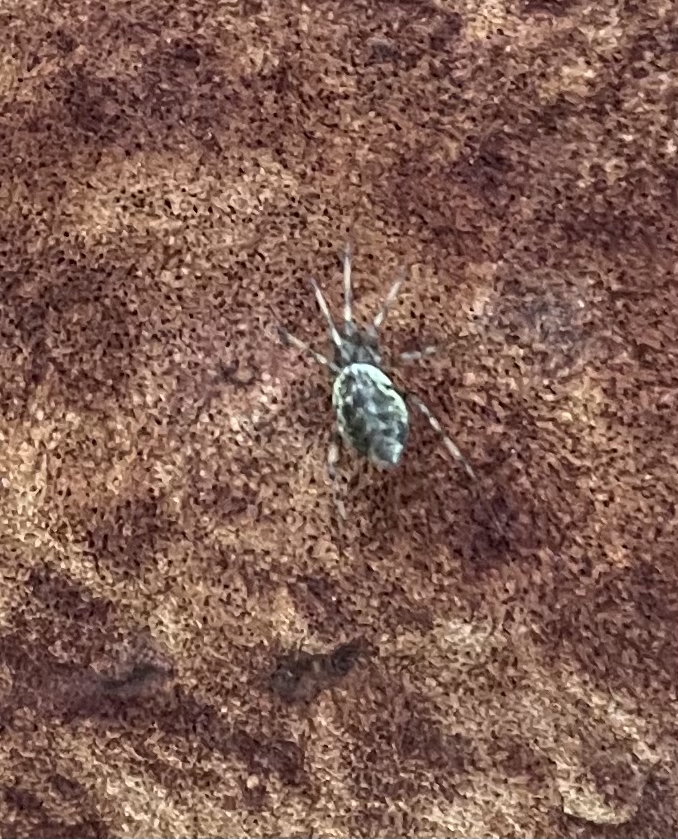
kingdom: Fungi
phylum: Basidiomycota
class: Agaricomycetes
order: Hymenochaetales
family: Hymenochaetaceae
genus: Fuscoporia
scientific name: Fuscoporia ferrea
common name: skorpe-ildporesvamp
